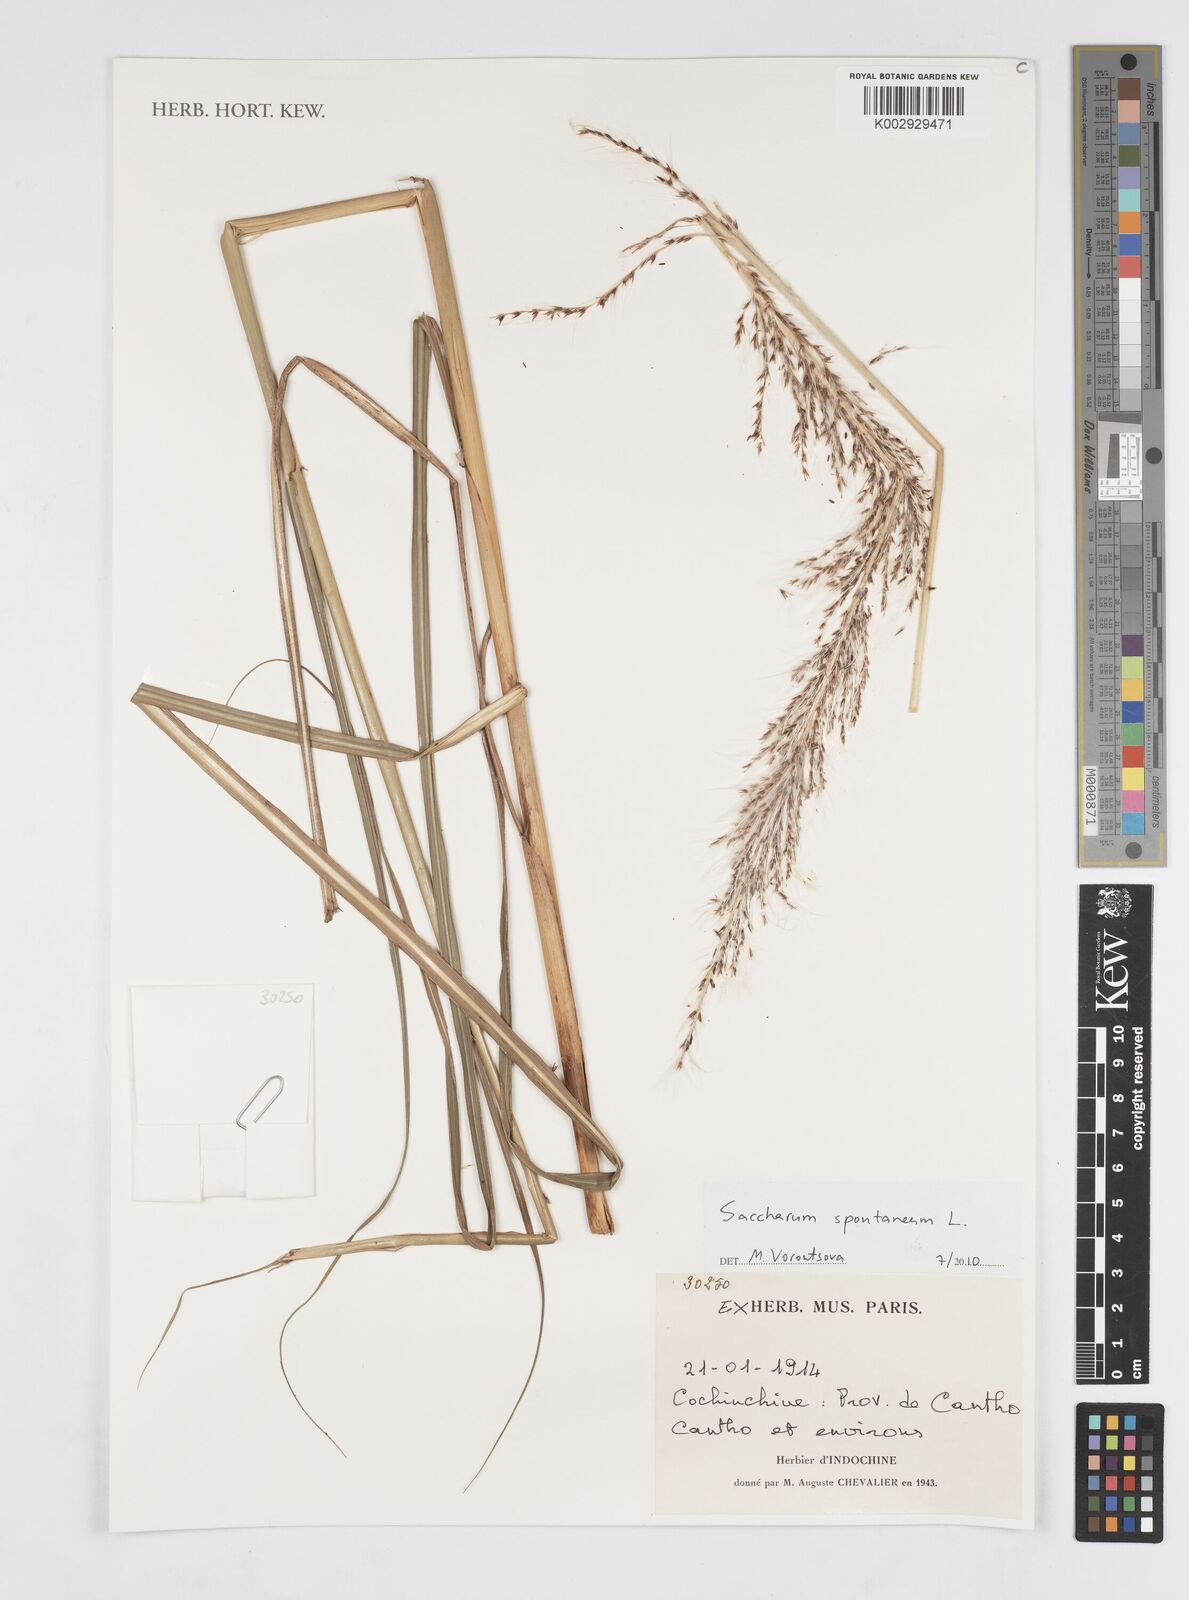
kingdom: Plantae
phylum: Tracheophyta
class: Liliopsida
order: Poales
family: Poaceae
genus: Saccharum
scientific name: Saccharum spontaneum
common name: Wild sugarcane
